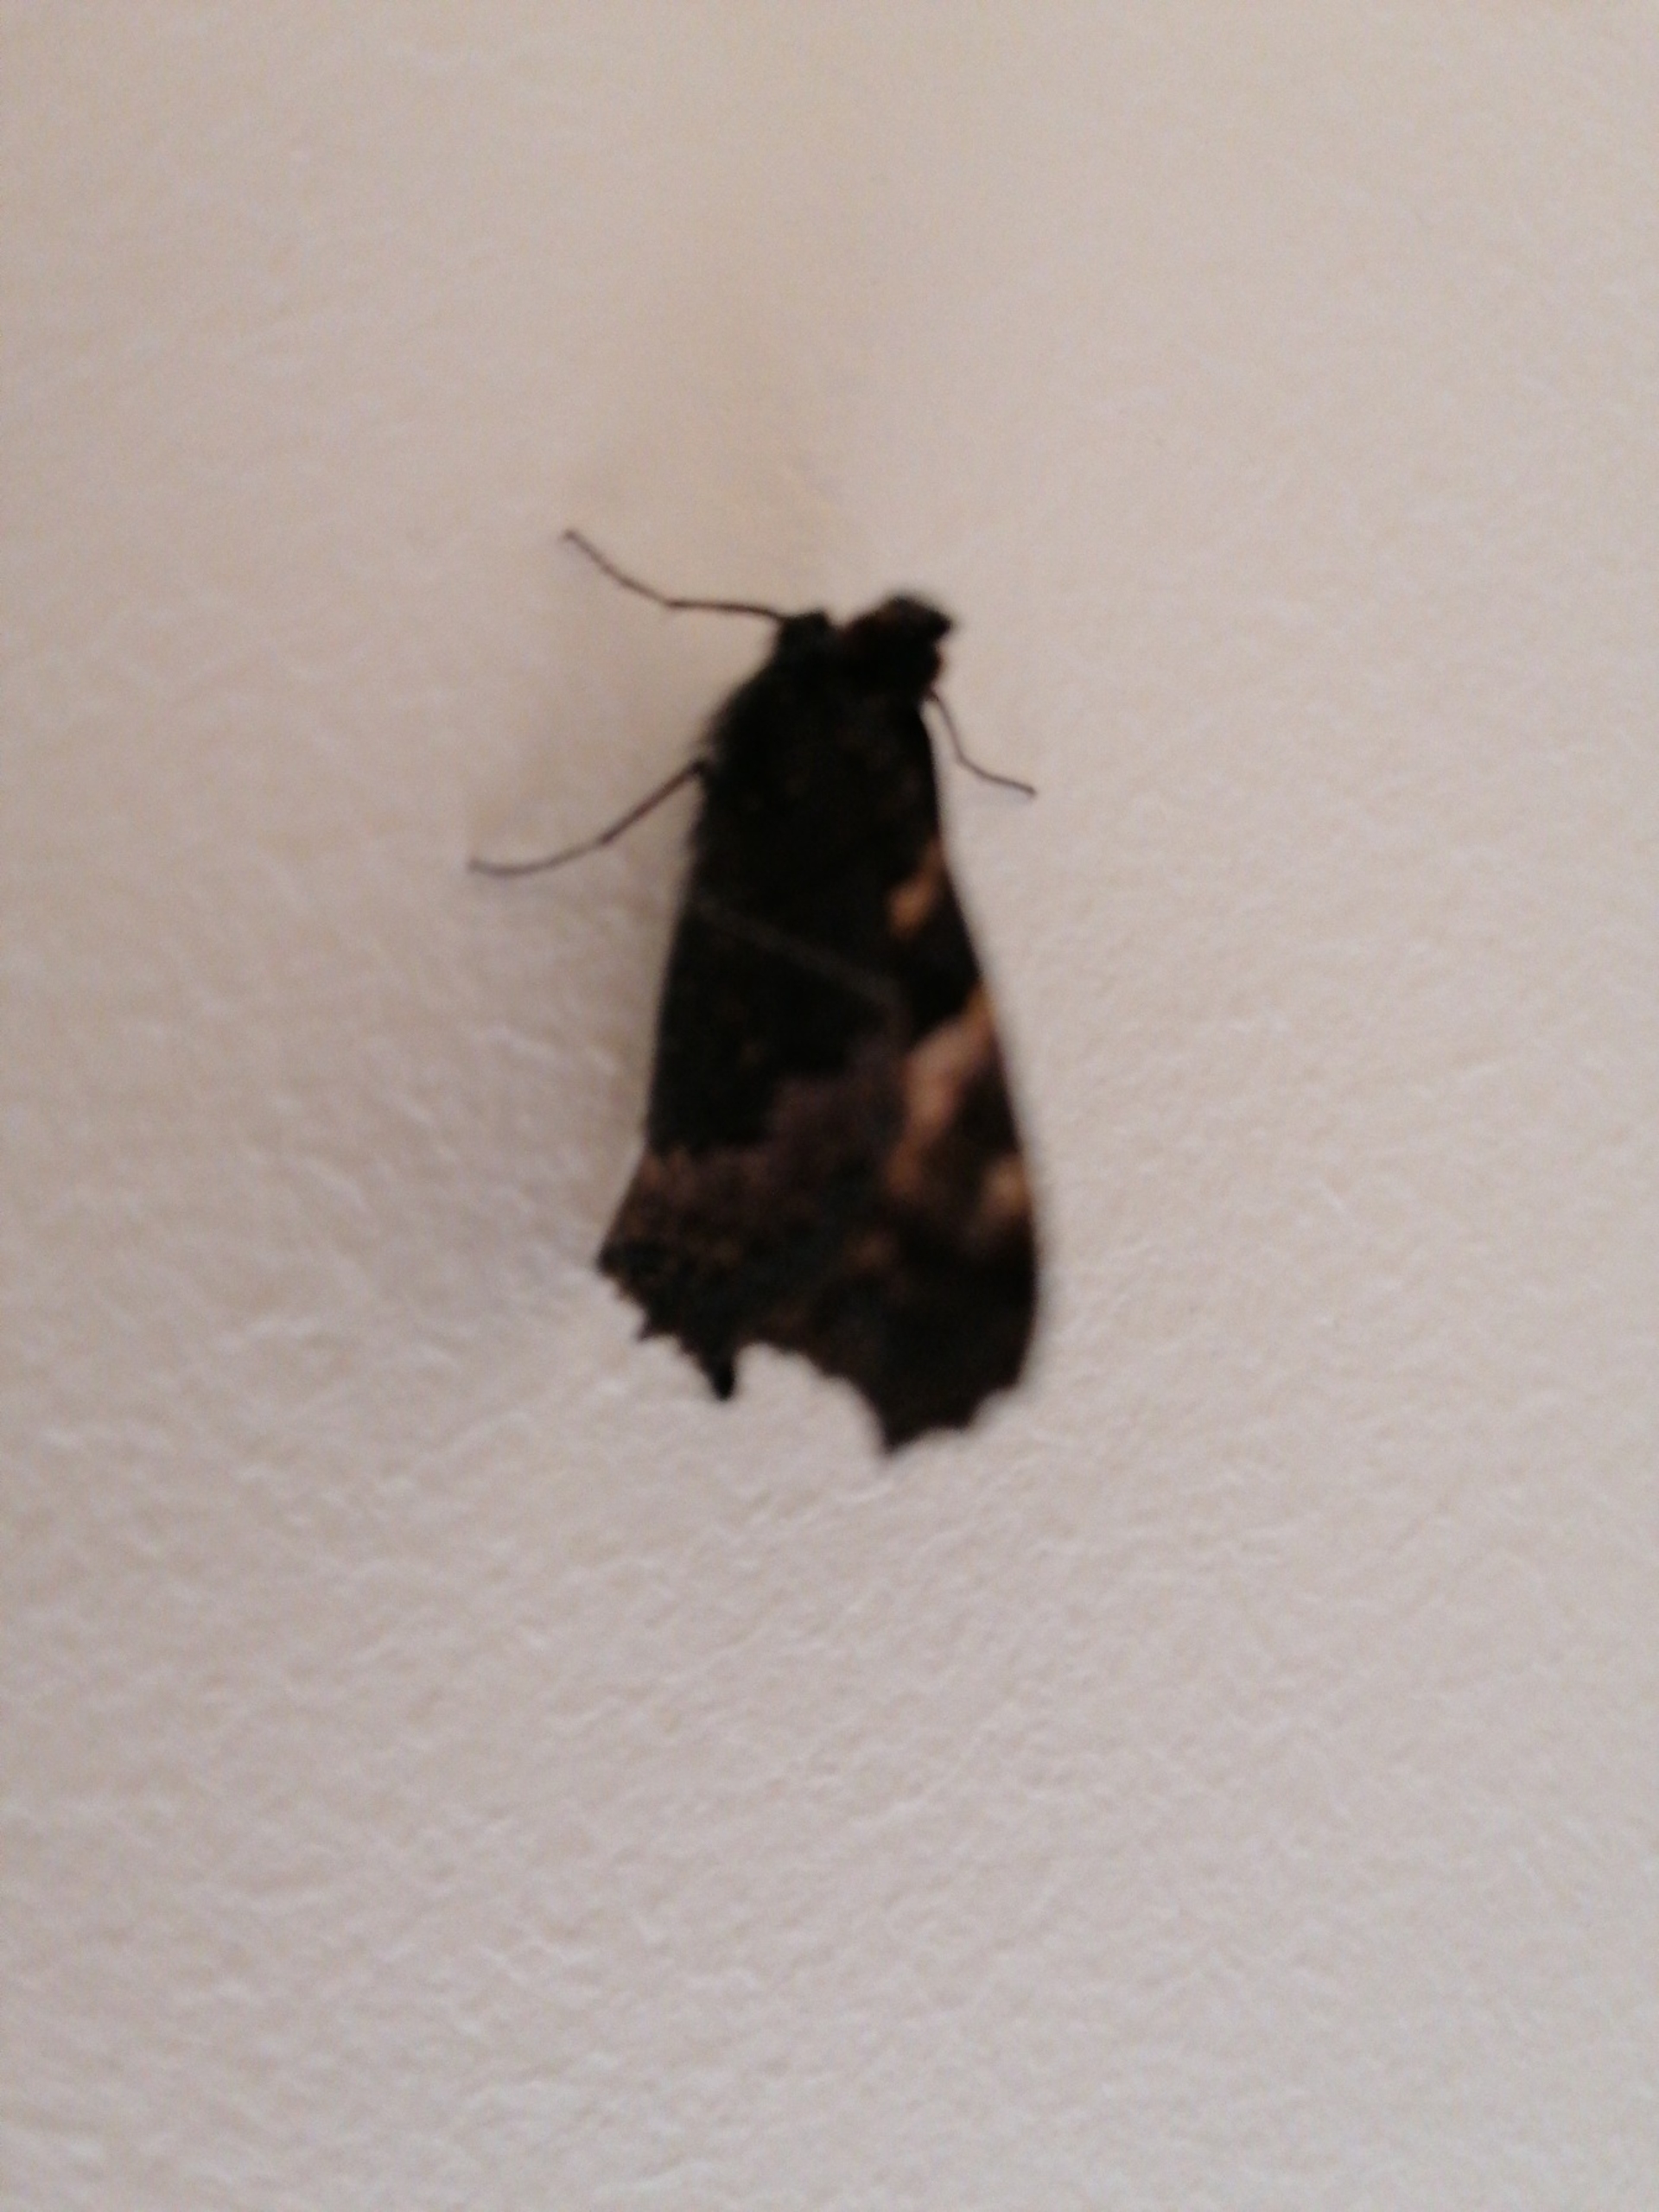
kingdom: Animalia
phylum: Arthropoda
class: Insecta
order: Lepidoptera
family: Nymphalidae
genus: Aglais
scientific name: Aglais urticae
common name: Nældens takvinge
